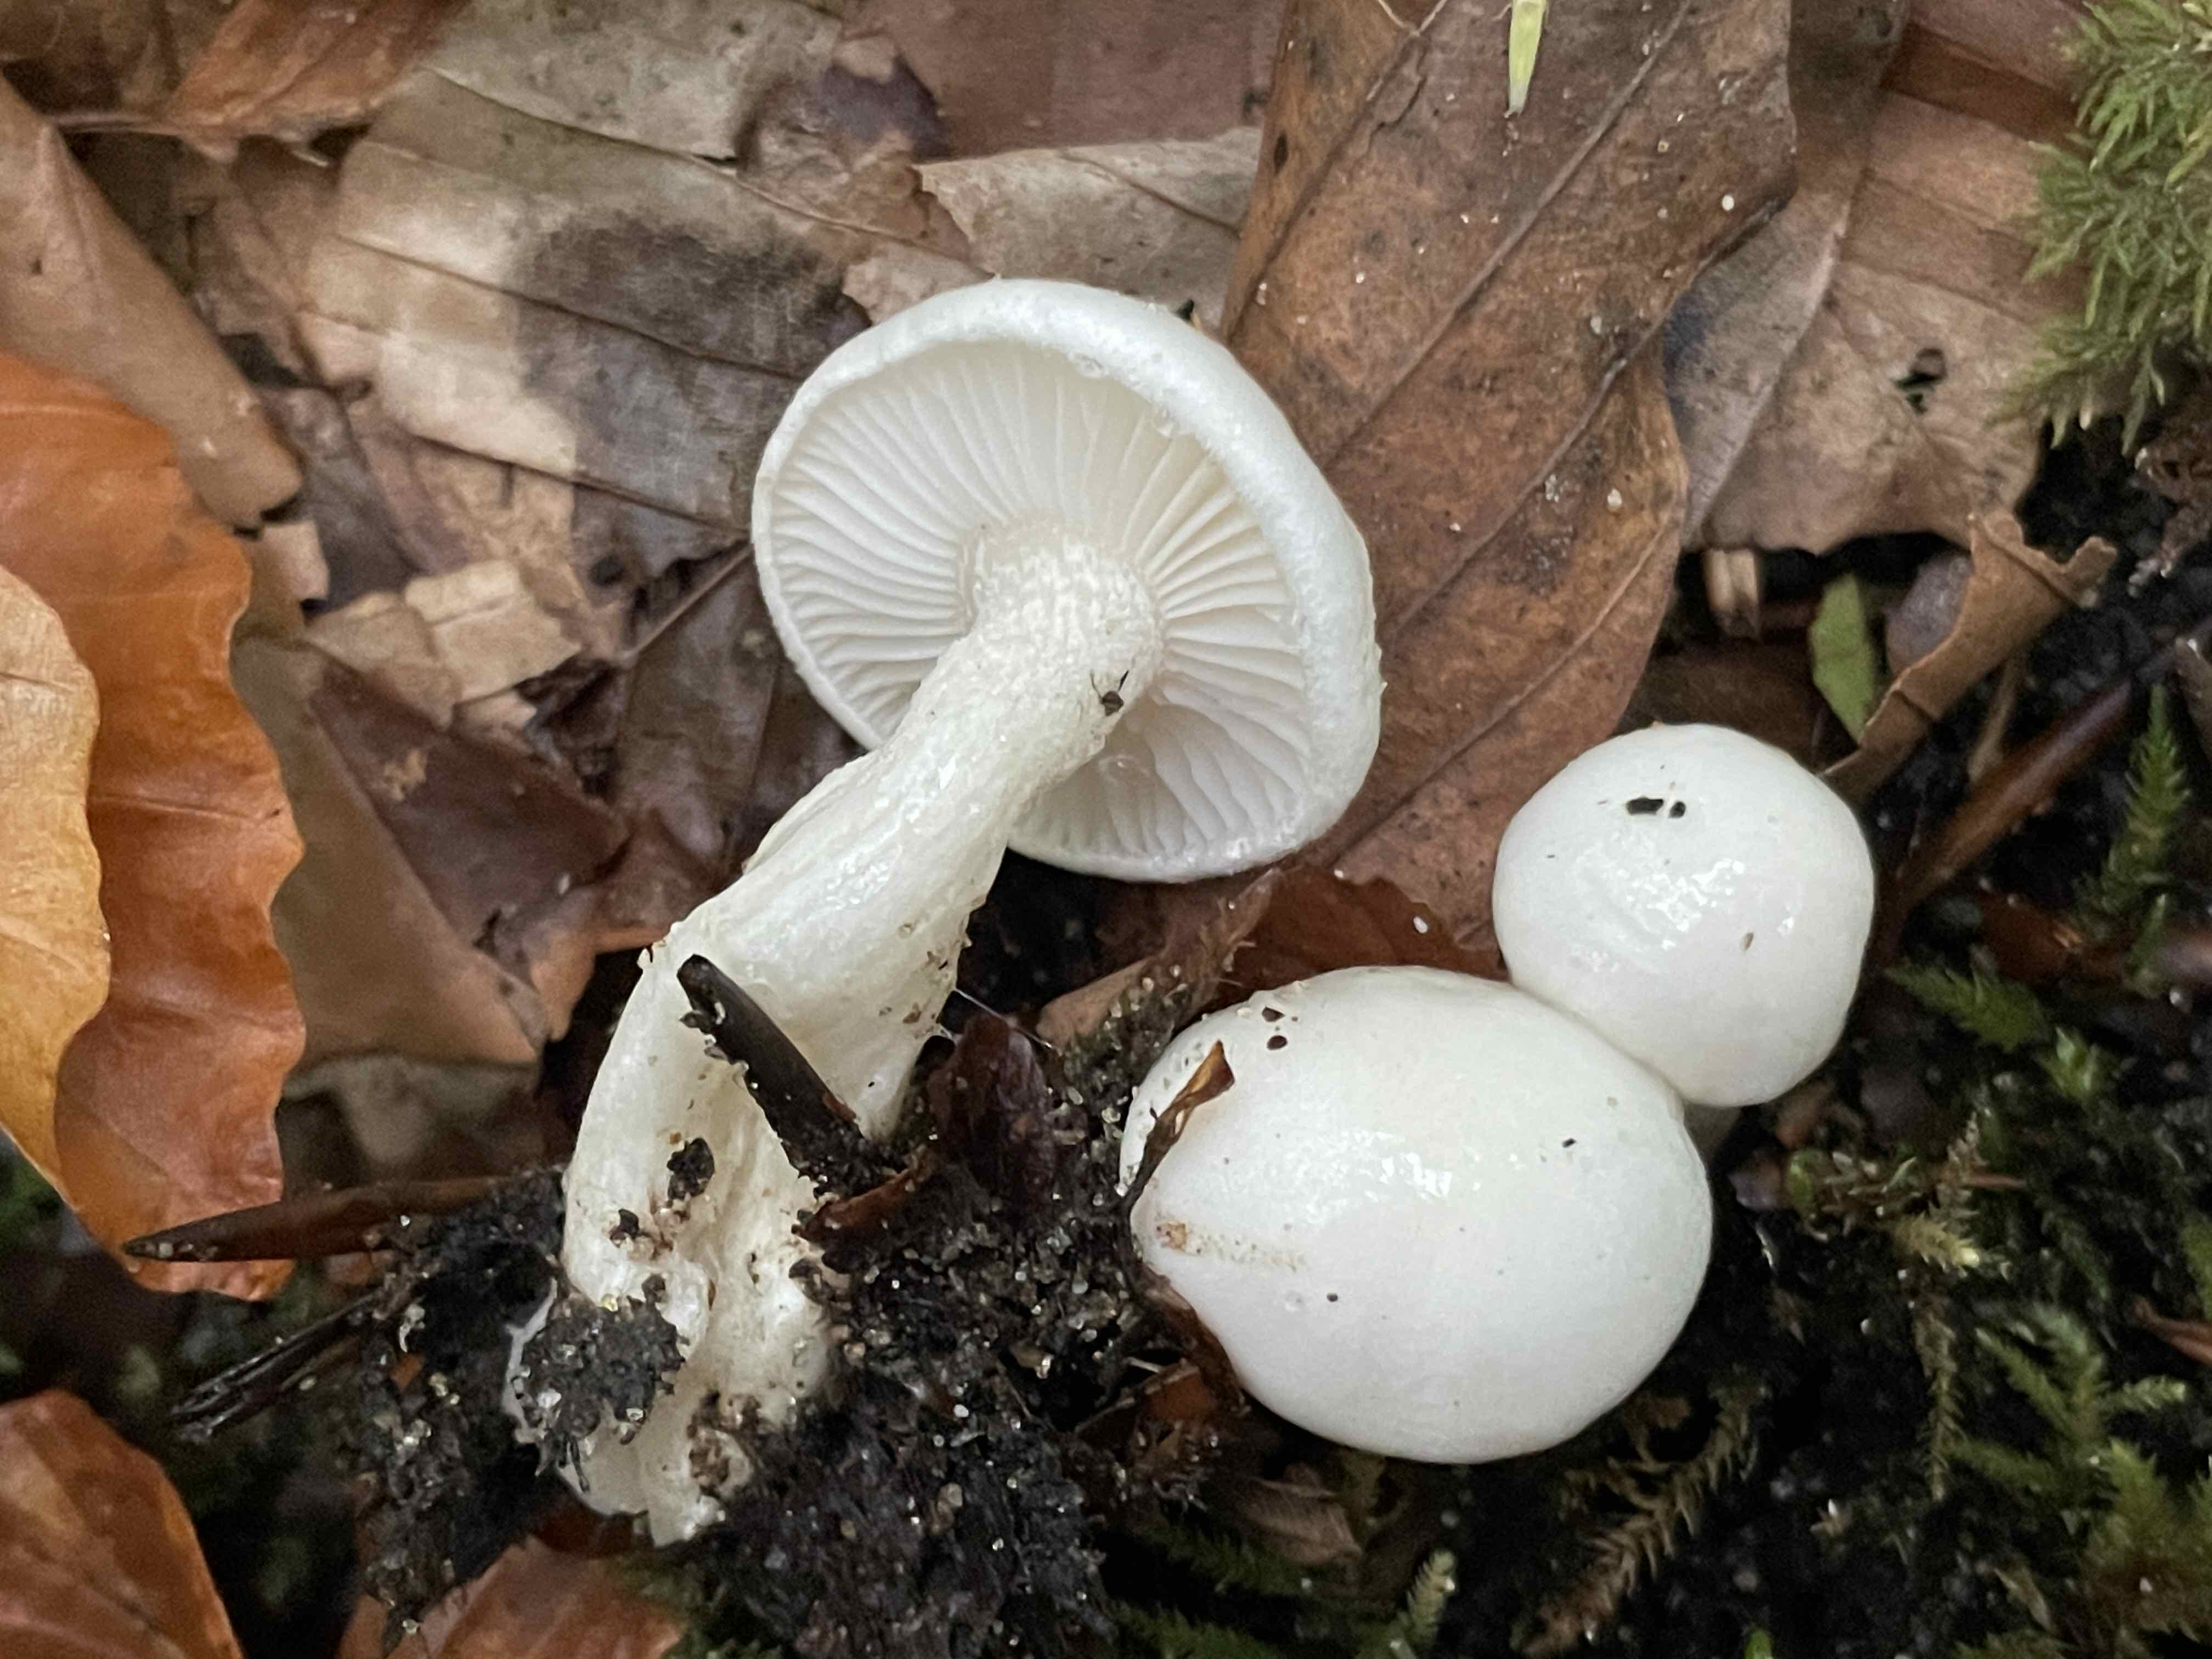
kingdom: Fungi
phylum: Basidiomycota
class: Agaricomycetes
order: Agaricales
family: Hygrophoraceae
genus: Hygrophorus
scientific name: Hygrophorus eburneus
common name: elfenbens-sneglehat
